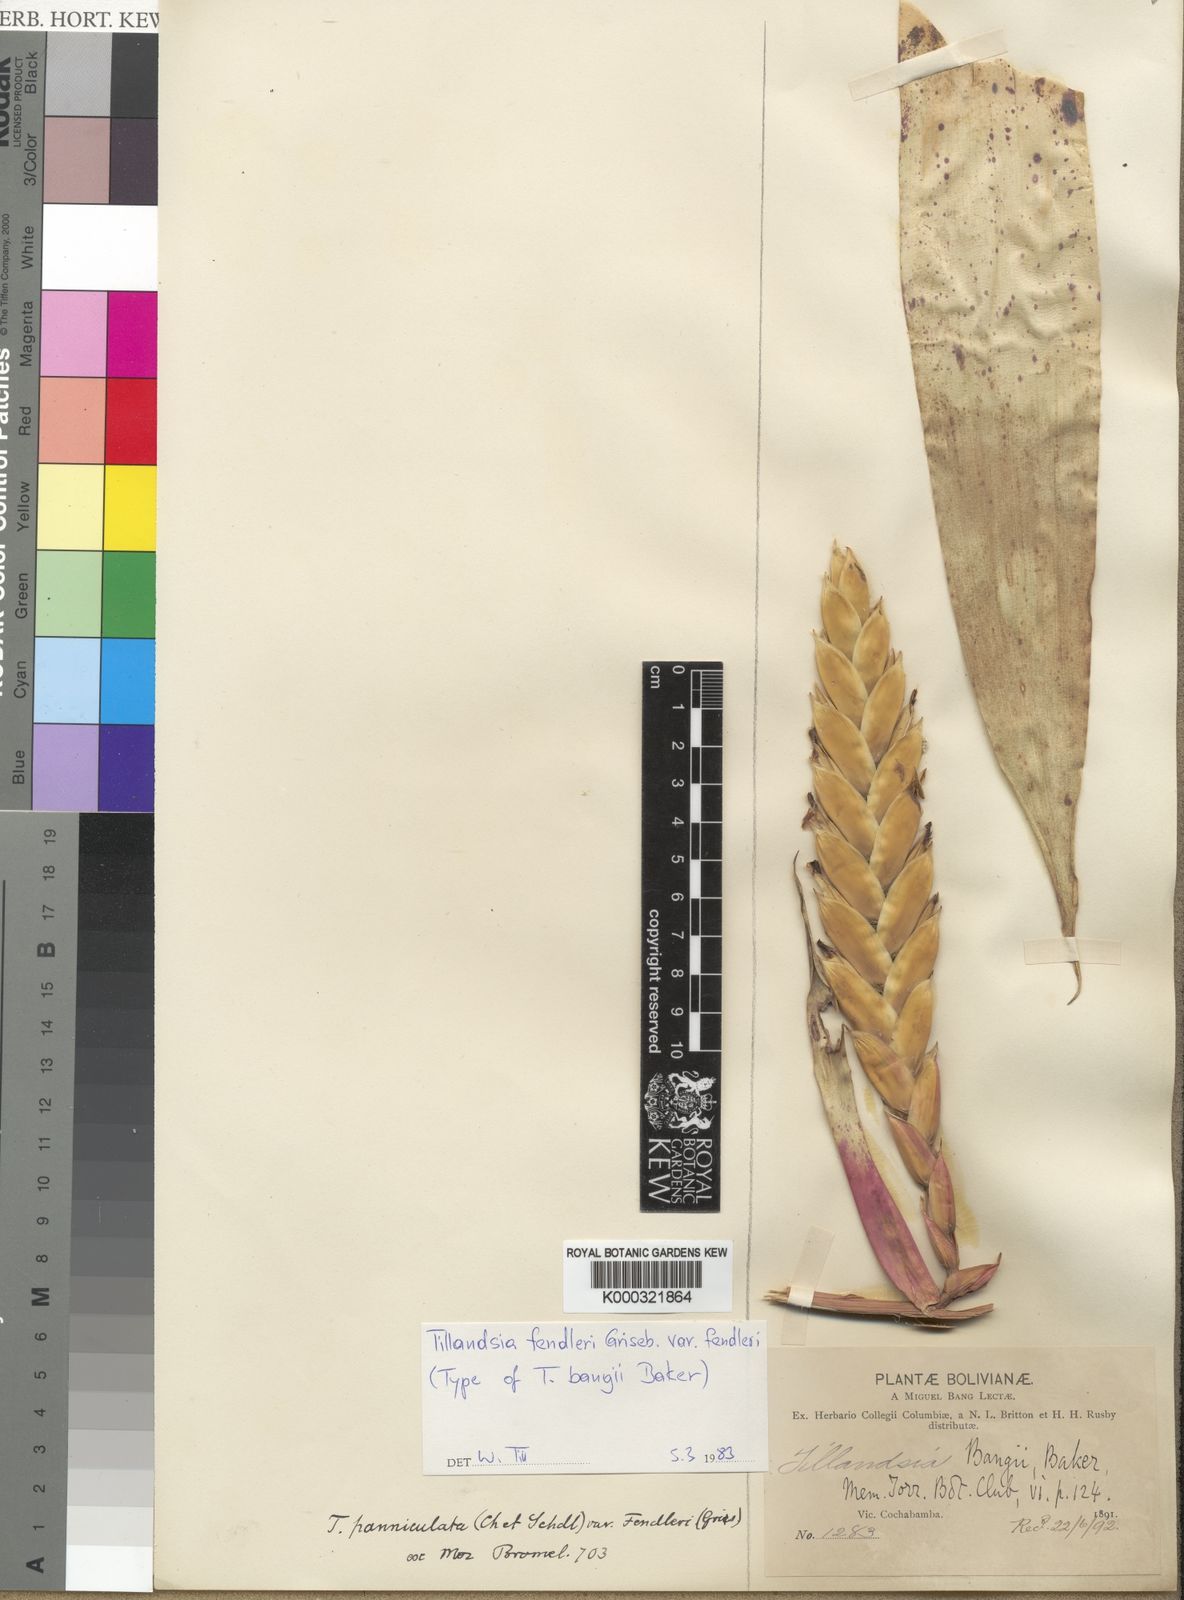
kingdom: Plantae
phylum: Tracheophyta
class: Liliopsida
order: Poales
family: Bromeliaceae
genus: Tillandsia
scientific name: Tillandsia fendleri
